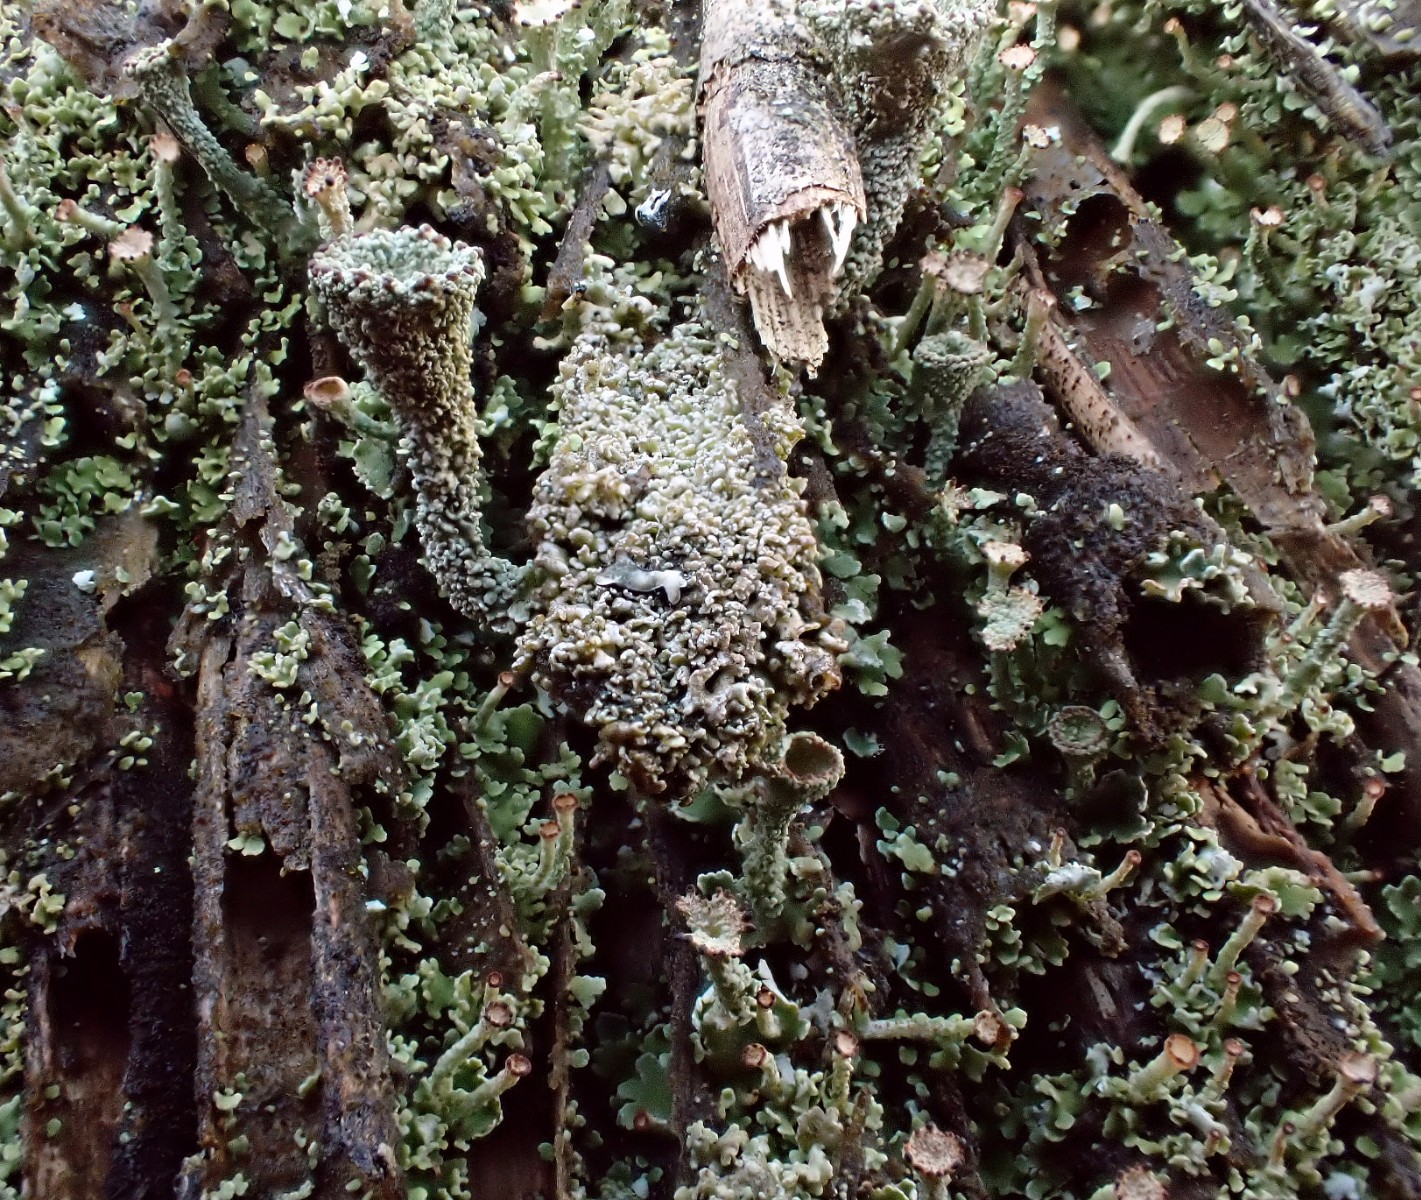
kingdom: Fungi
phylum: Ascomycota
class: Lecanoromycetes
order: Lecanorales
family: Cladoniaceae
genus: Cladonia
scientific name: Cladonia
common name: brungrøn bægerlav
